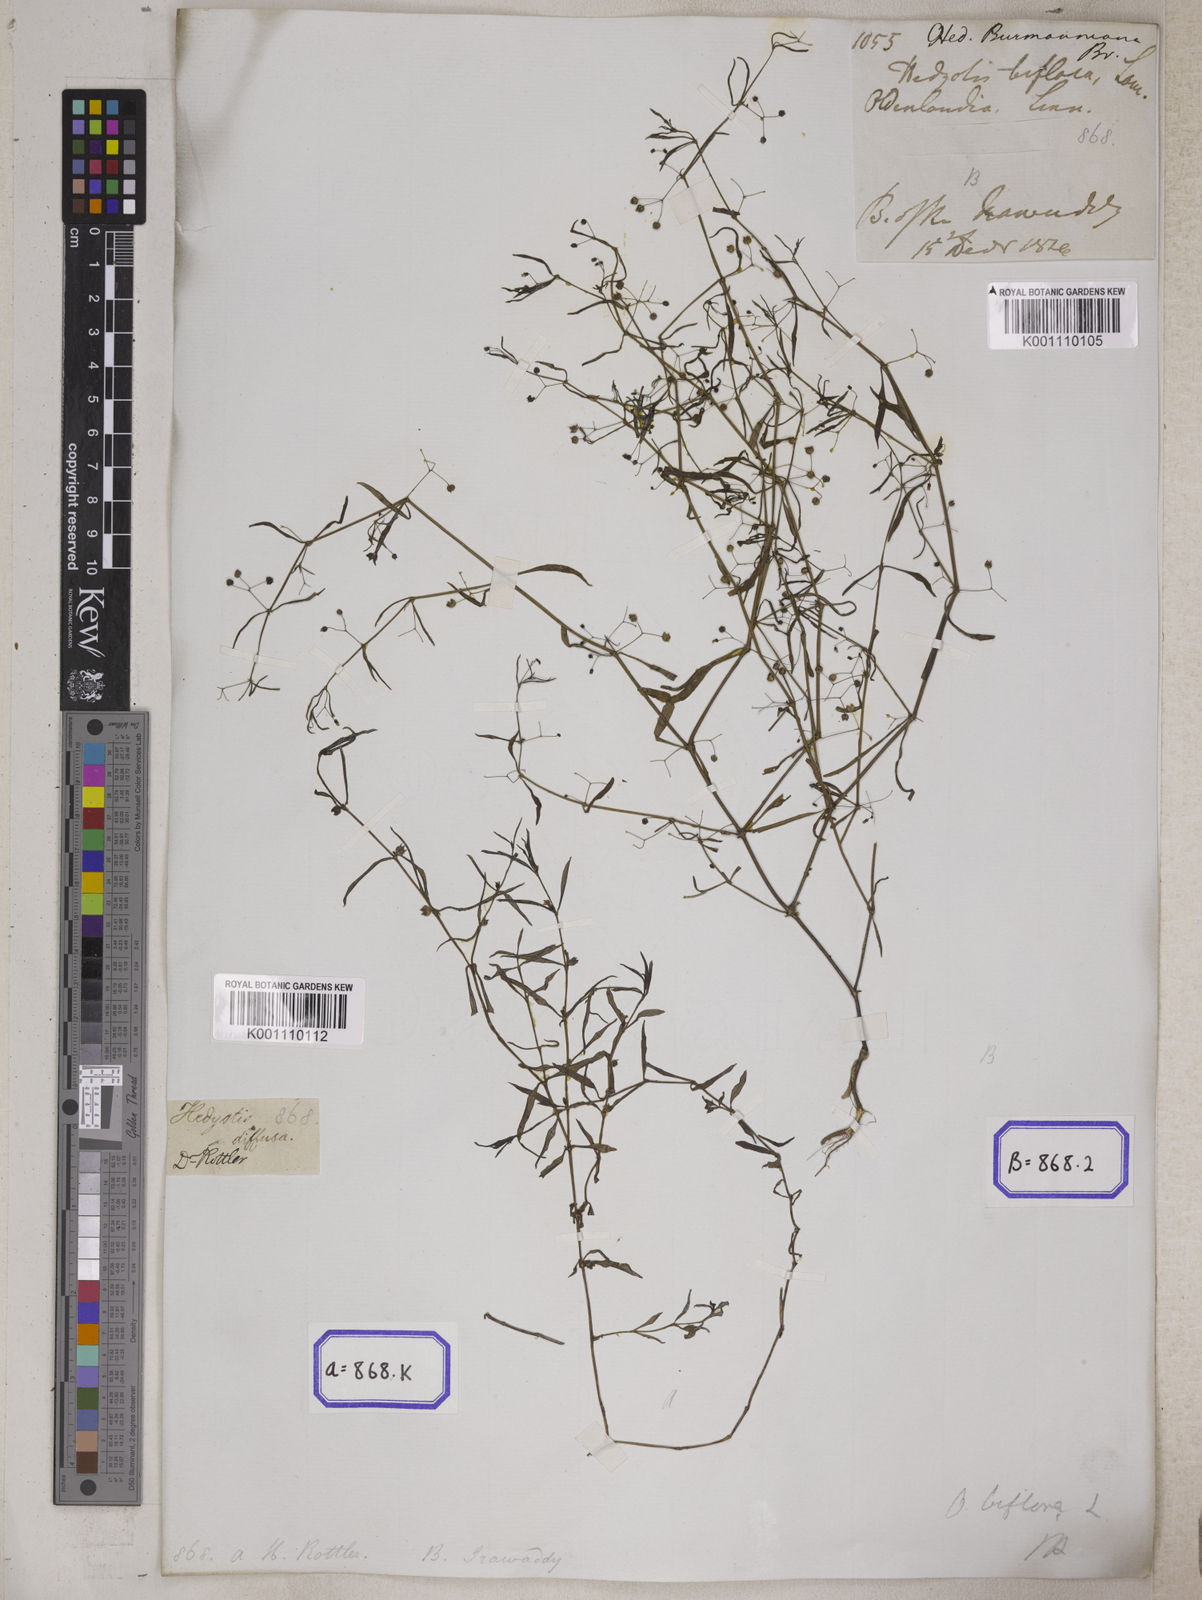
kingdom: Plantae
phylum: Tracheophyta
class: Magnoliopsida
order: Gentianales
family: Rubiaceae
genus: Hedyotis
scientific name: Hedyotis
